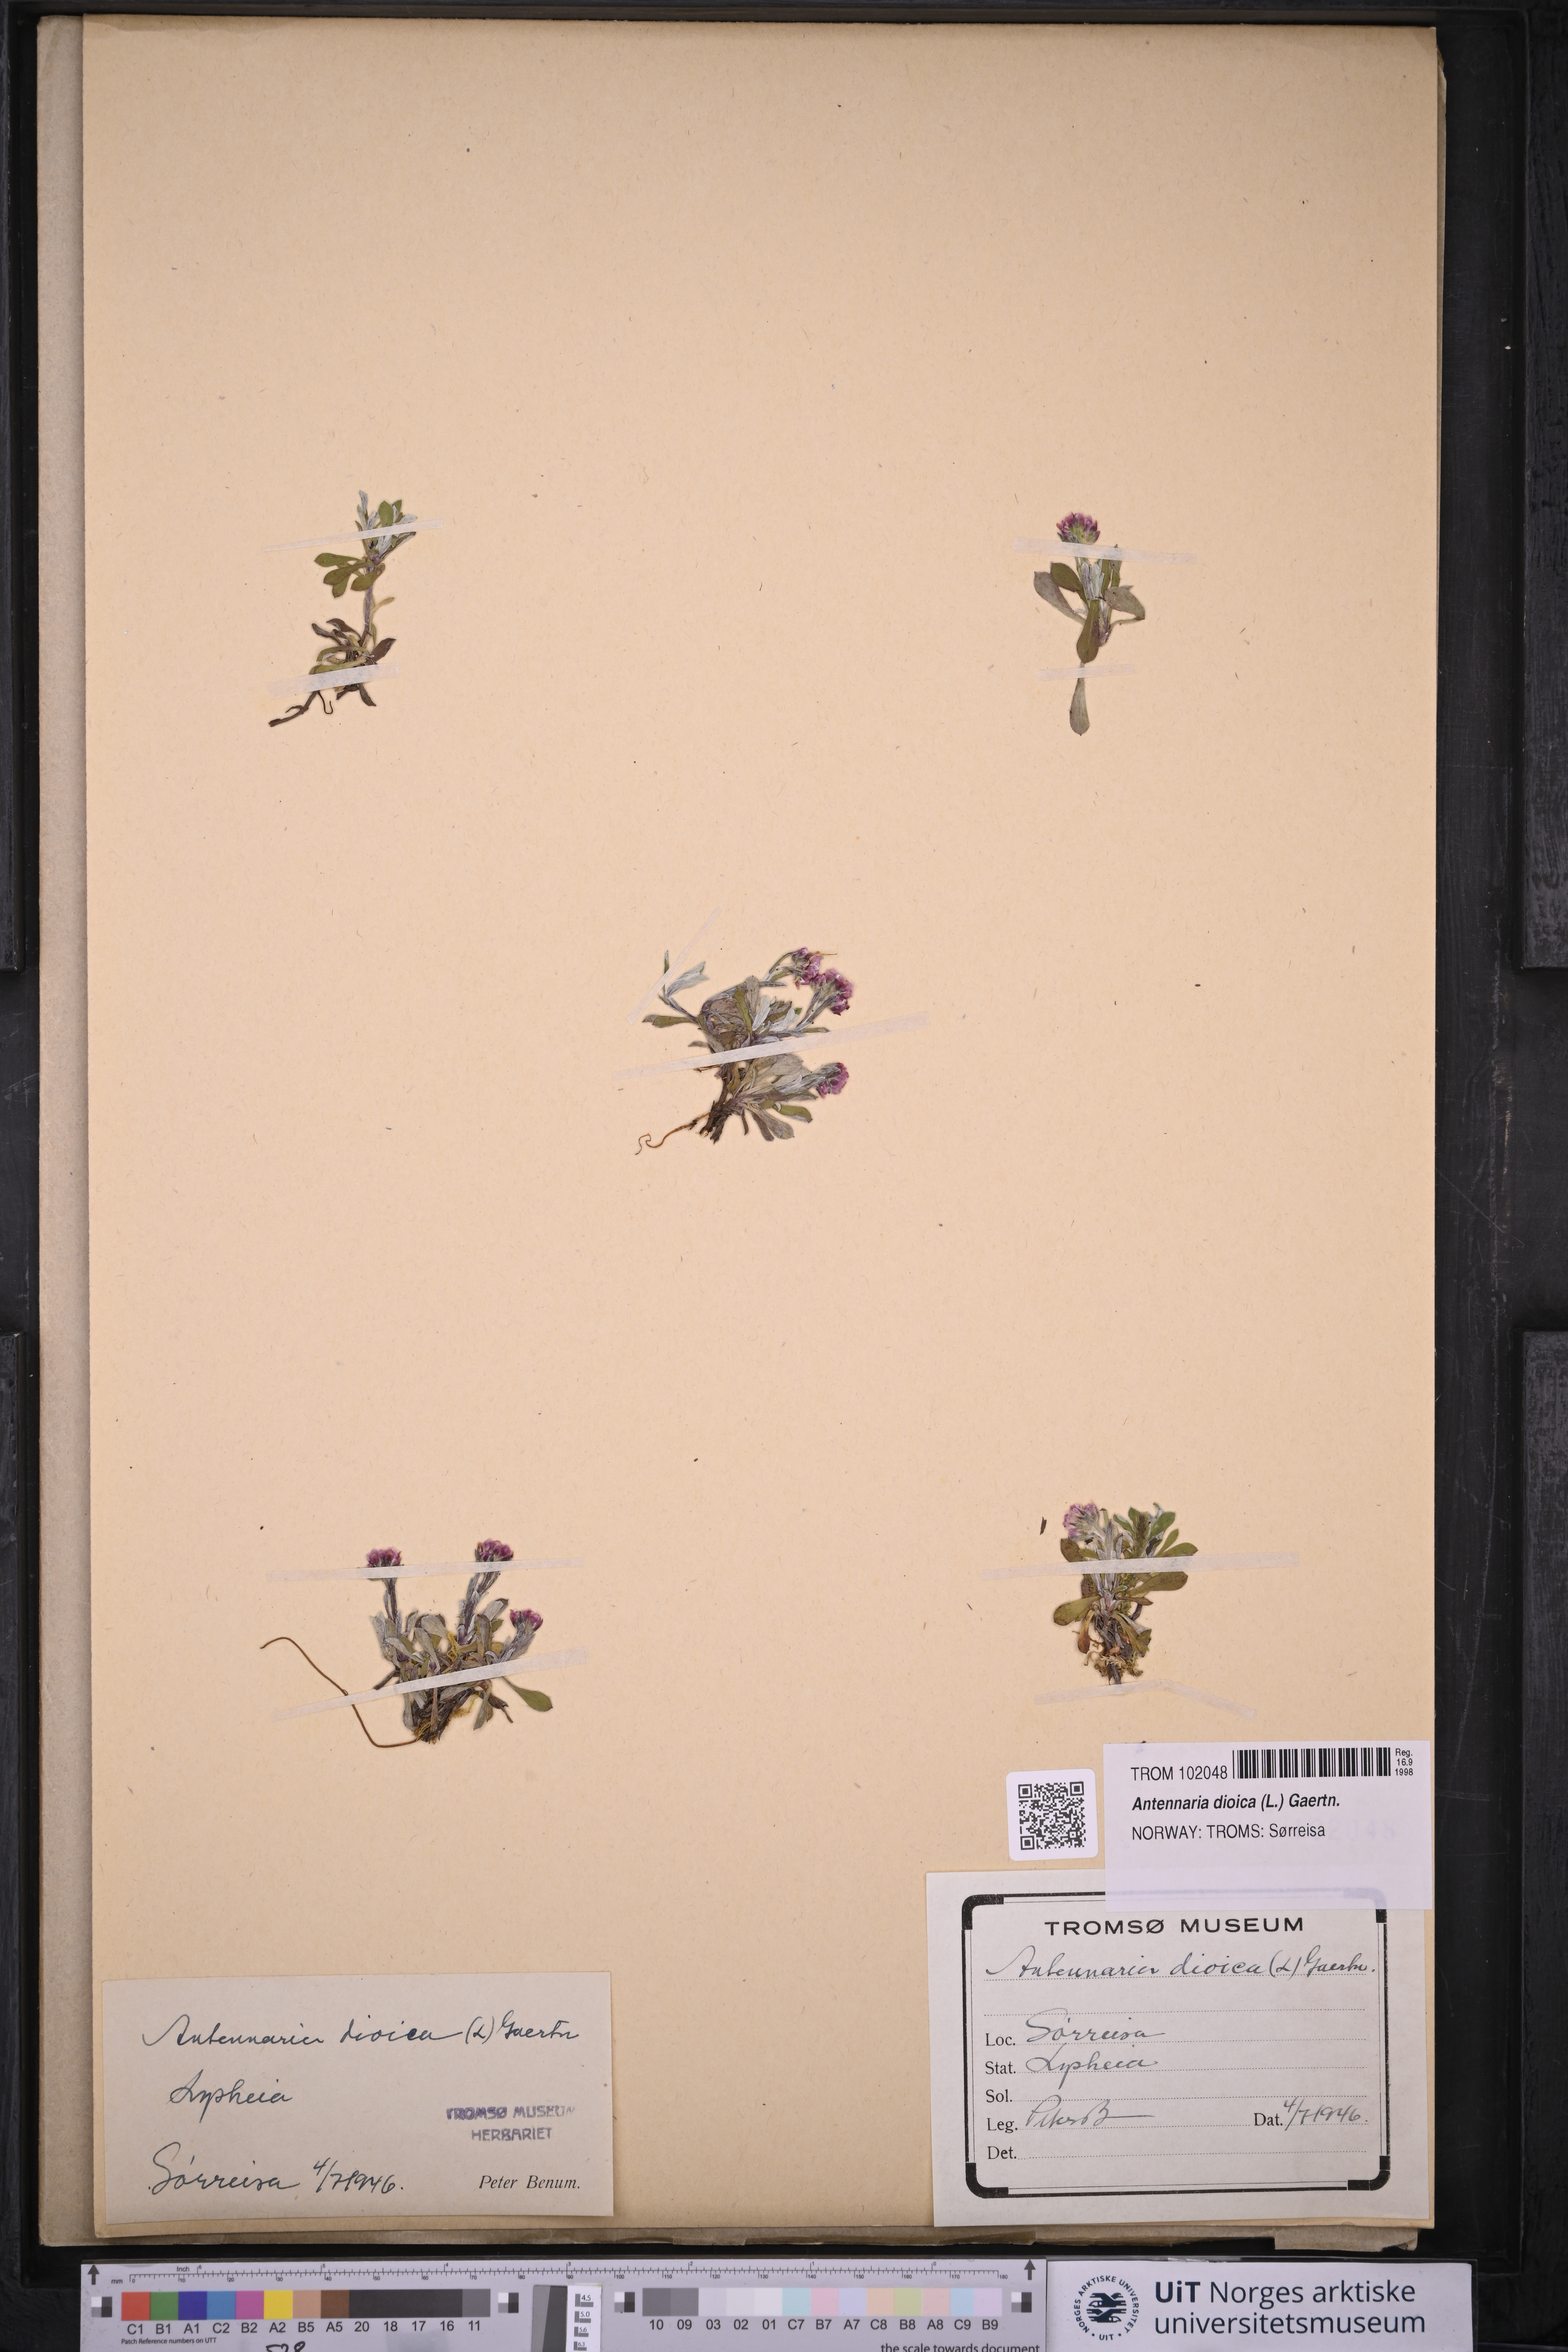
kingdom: Plantae
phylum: Tracheophyta
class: Magnoliopsida
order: Asterales
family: Asteraceae
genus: Antennaria
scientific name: Antennaria dioica
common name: Mountain everlasting
